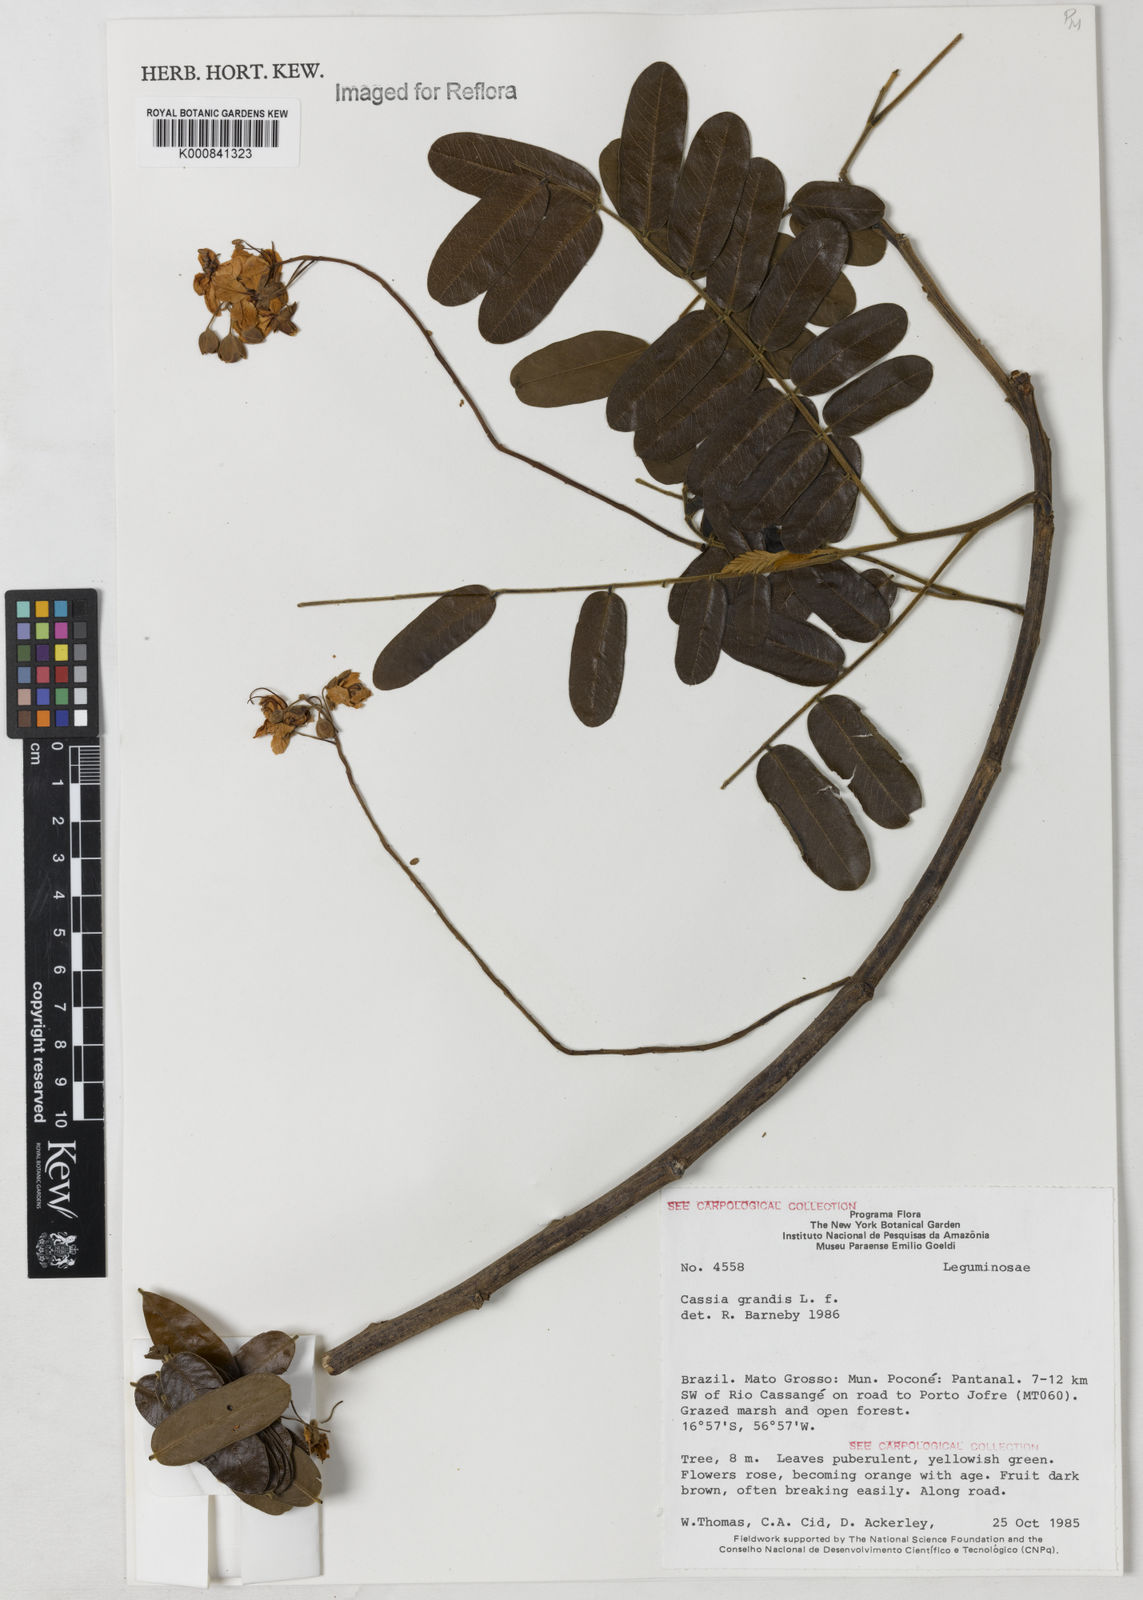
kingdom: Plantae
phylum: Tracheophyta
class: Magnoliopsida
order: Fabales
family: Fabaceae
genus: Cassia
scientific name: Cassia grandis
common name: Appleblossom cassia
